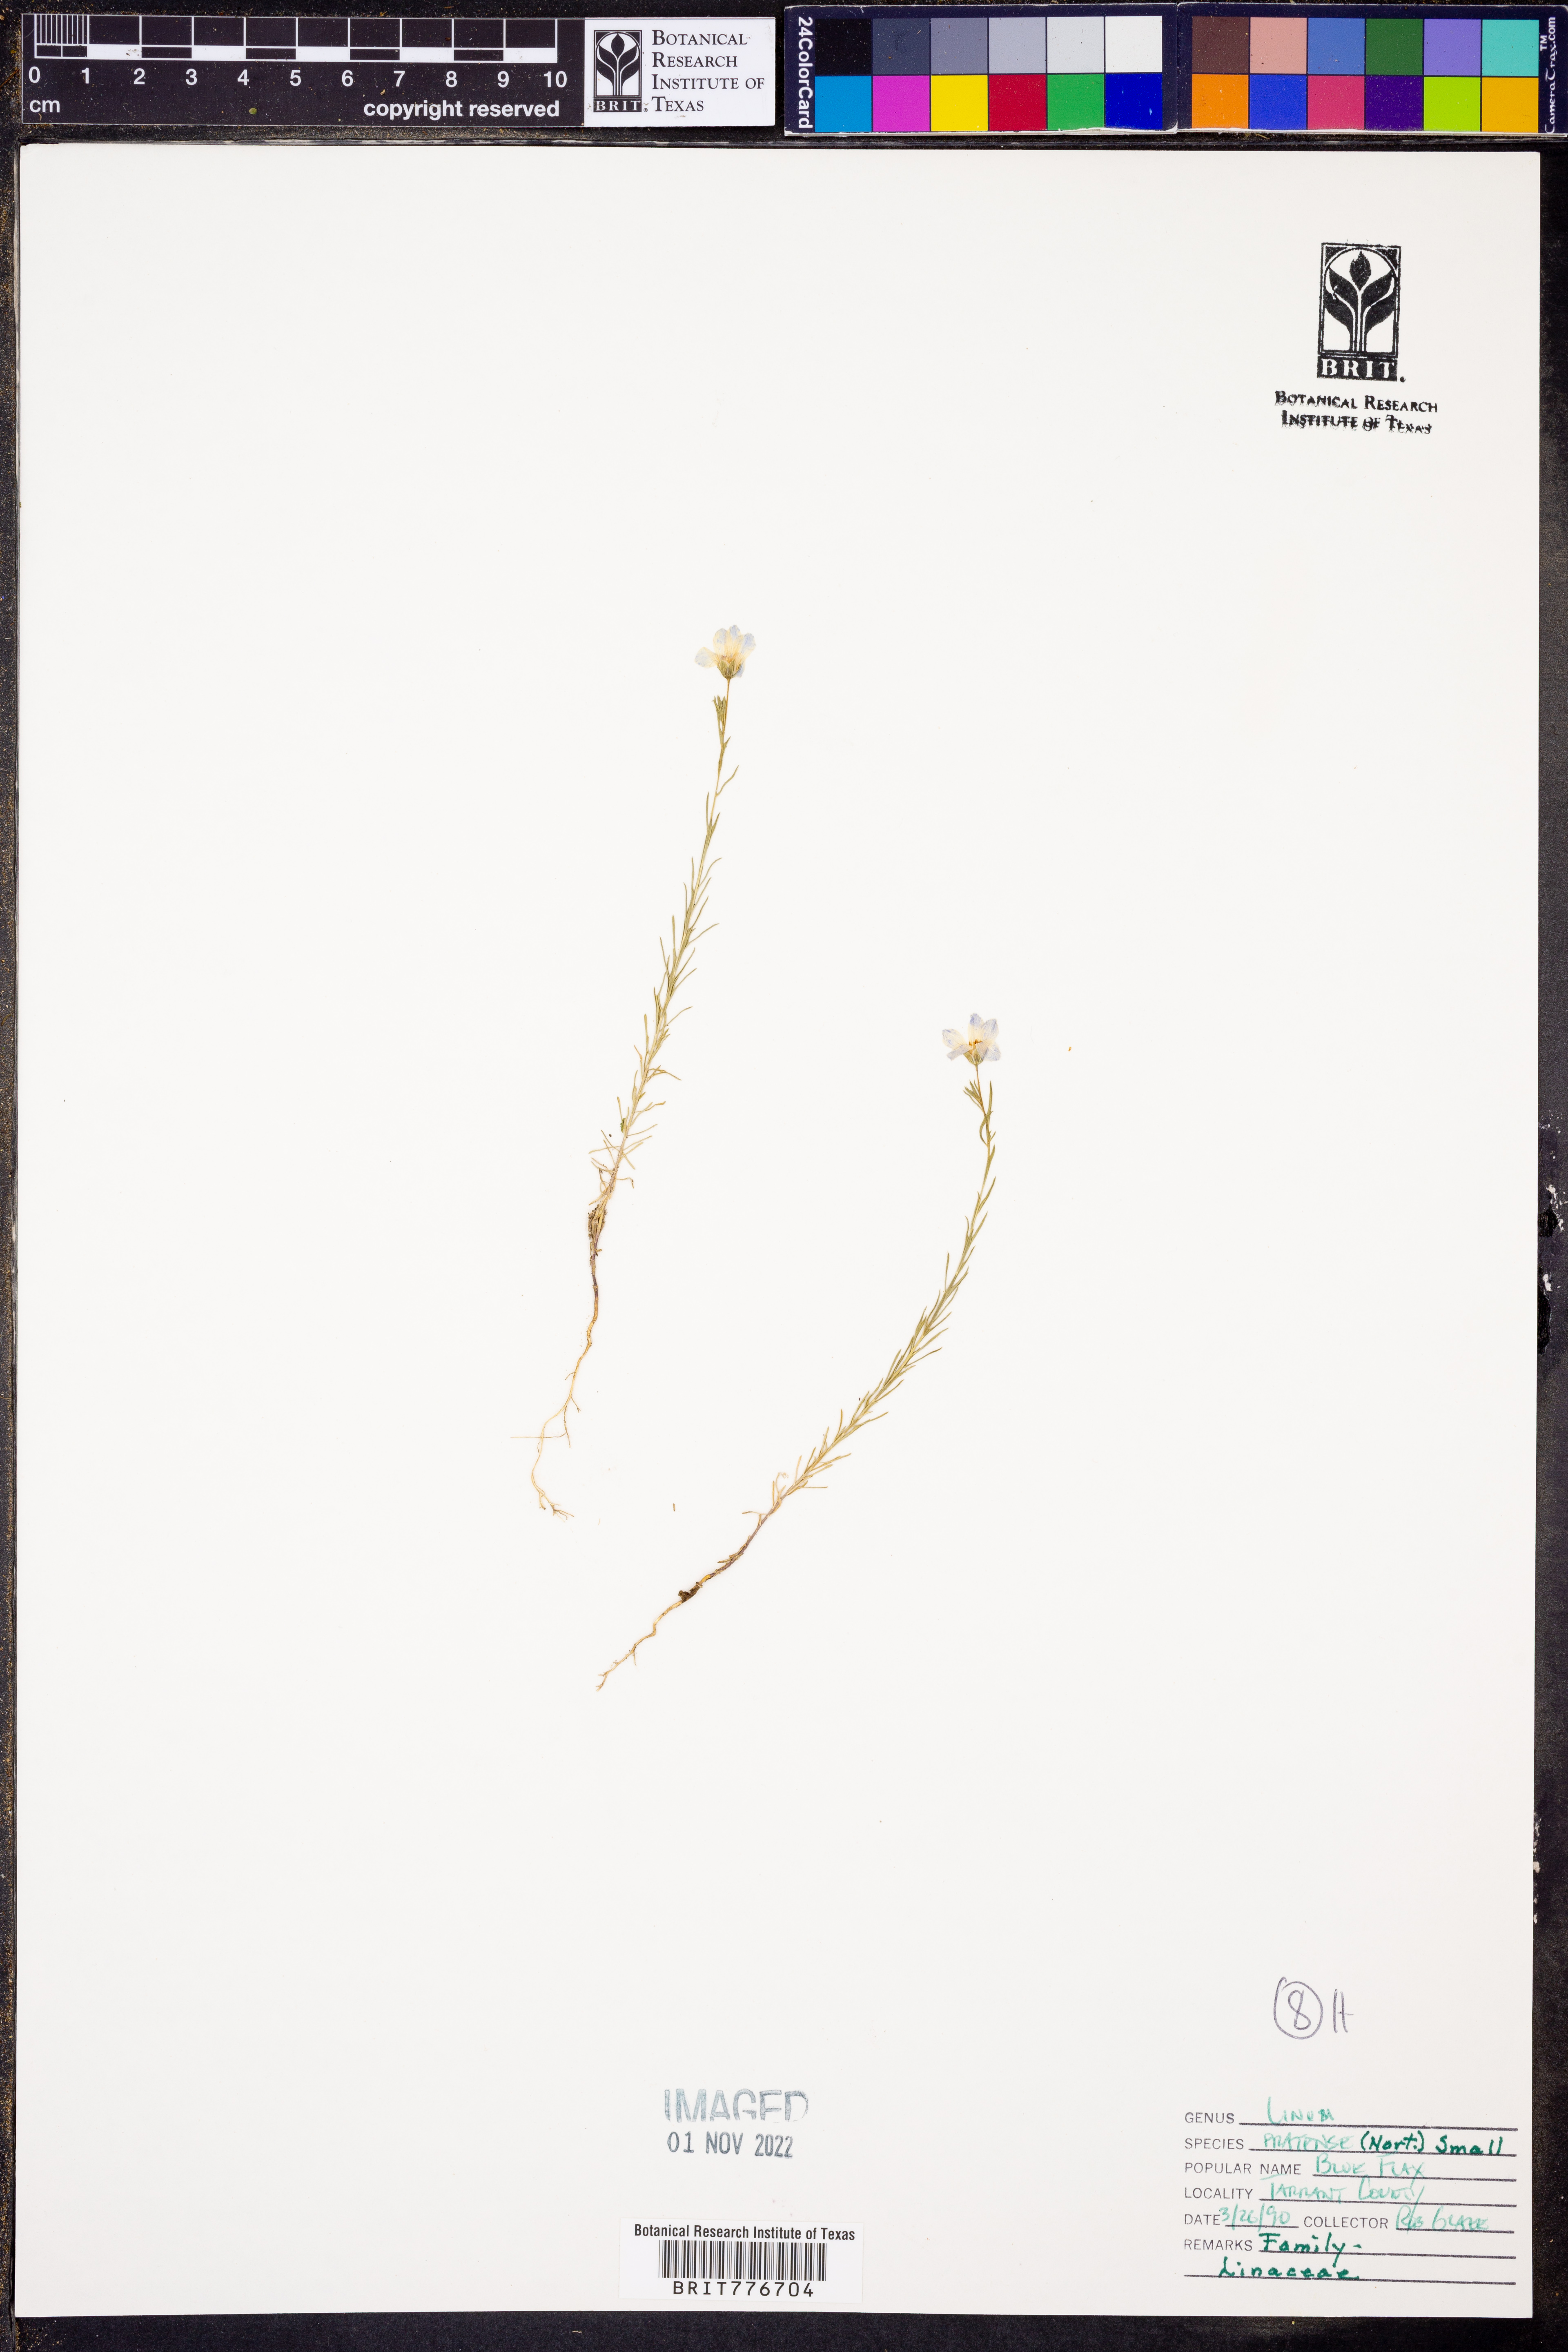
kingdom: Plantae
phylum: Tracheophyta
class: Magnoliopsida
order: Malpighiales
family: Linaceae
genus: Linum
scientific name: Linum pratense
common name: Norton's flax
